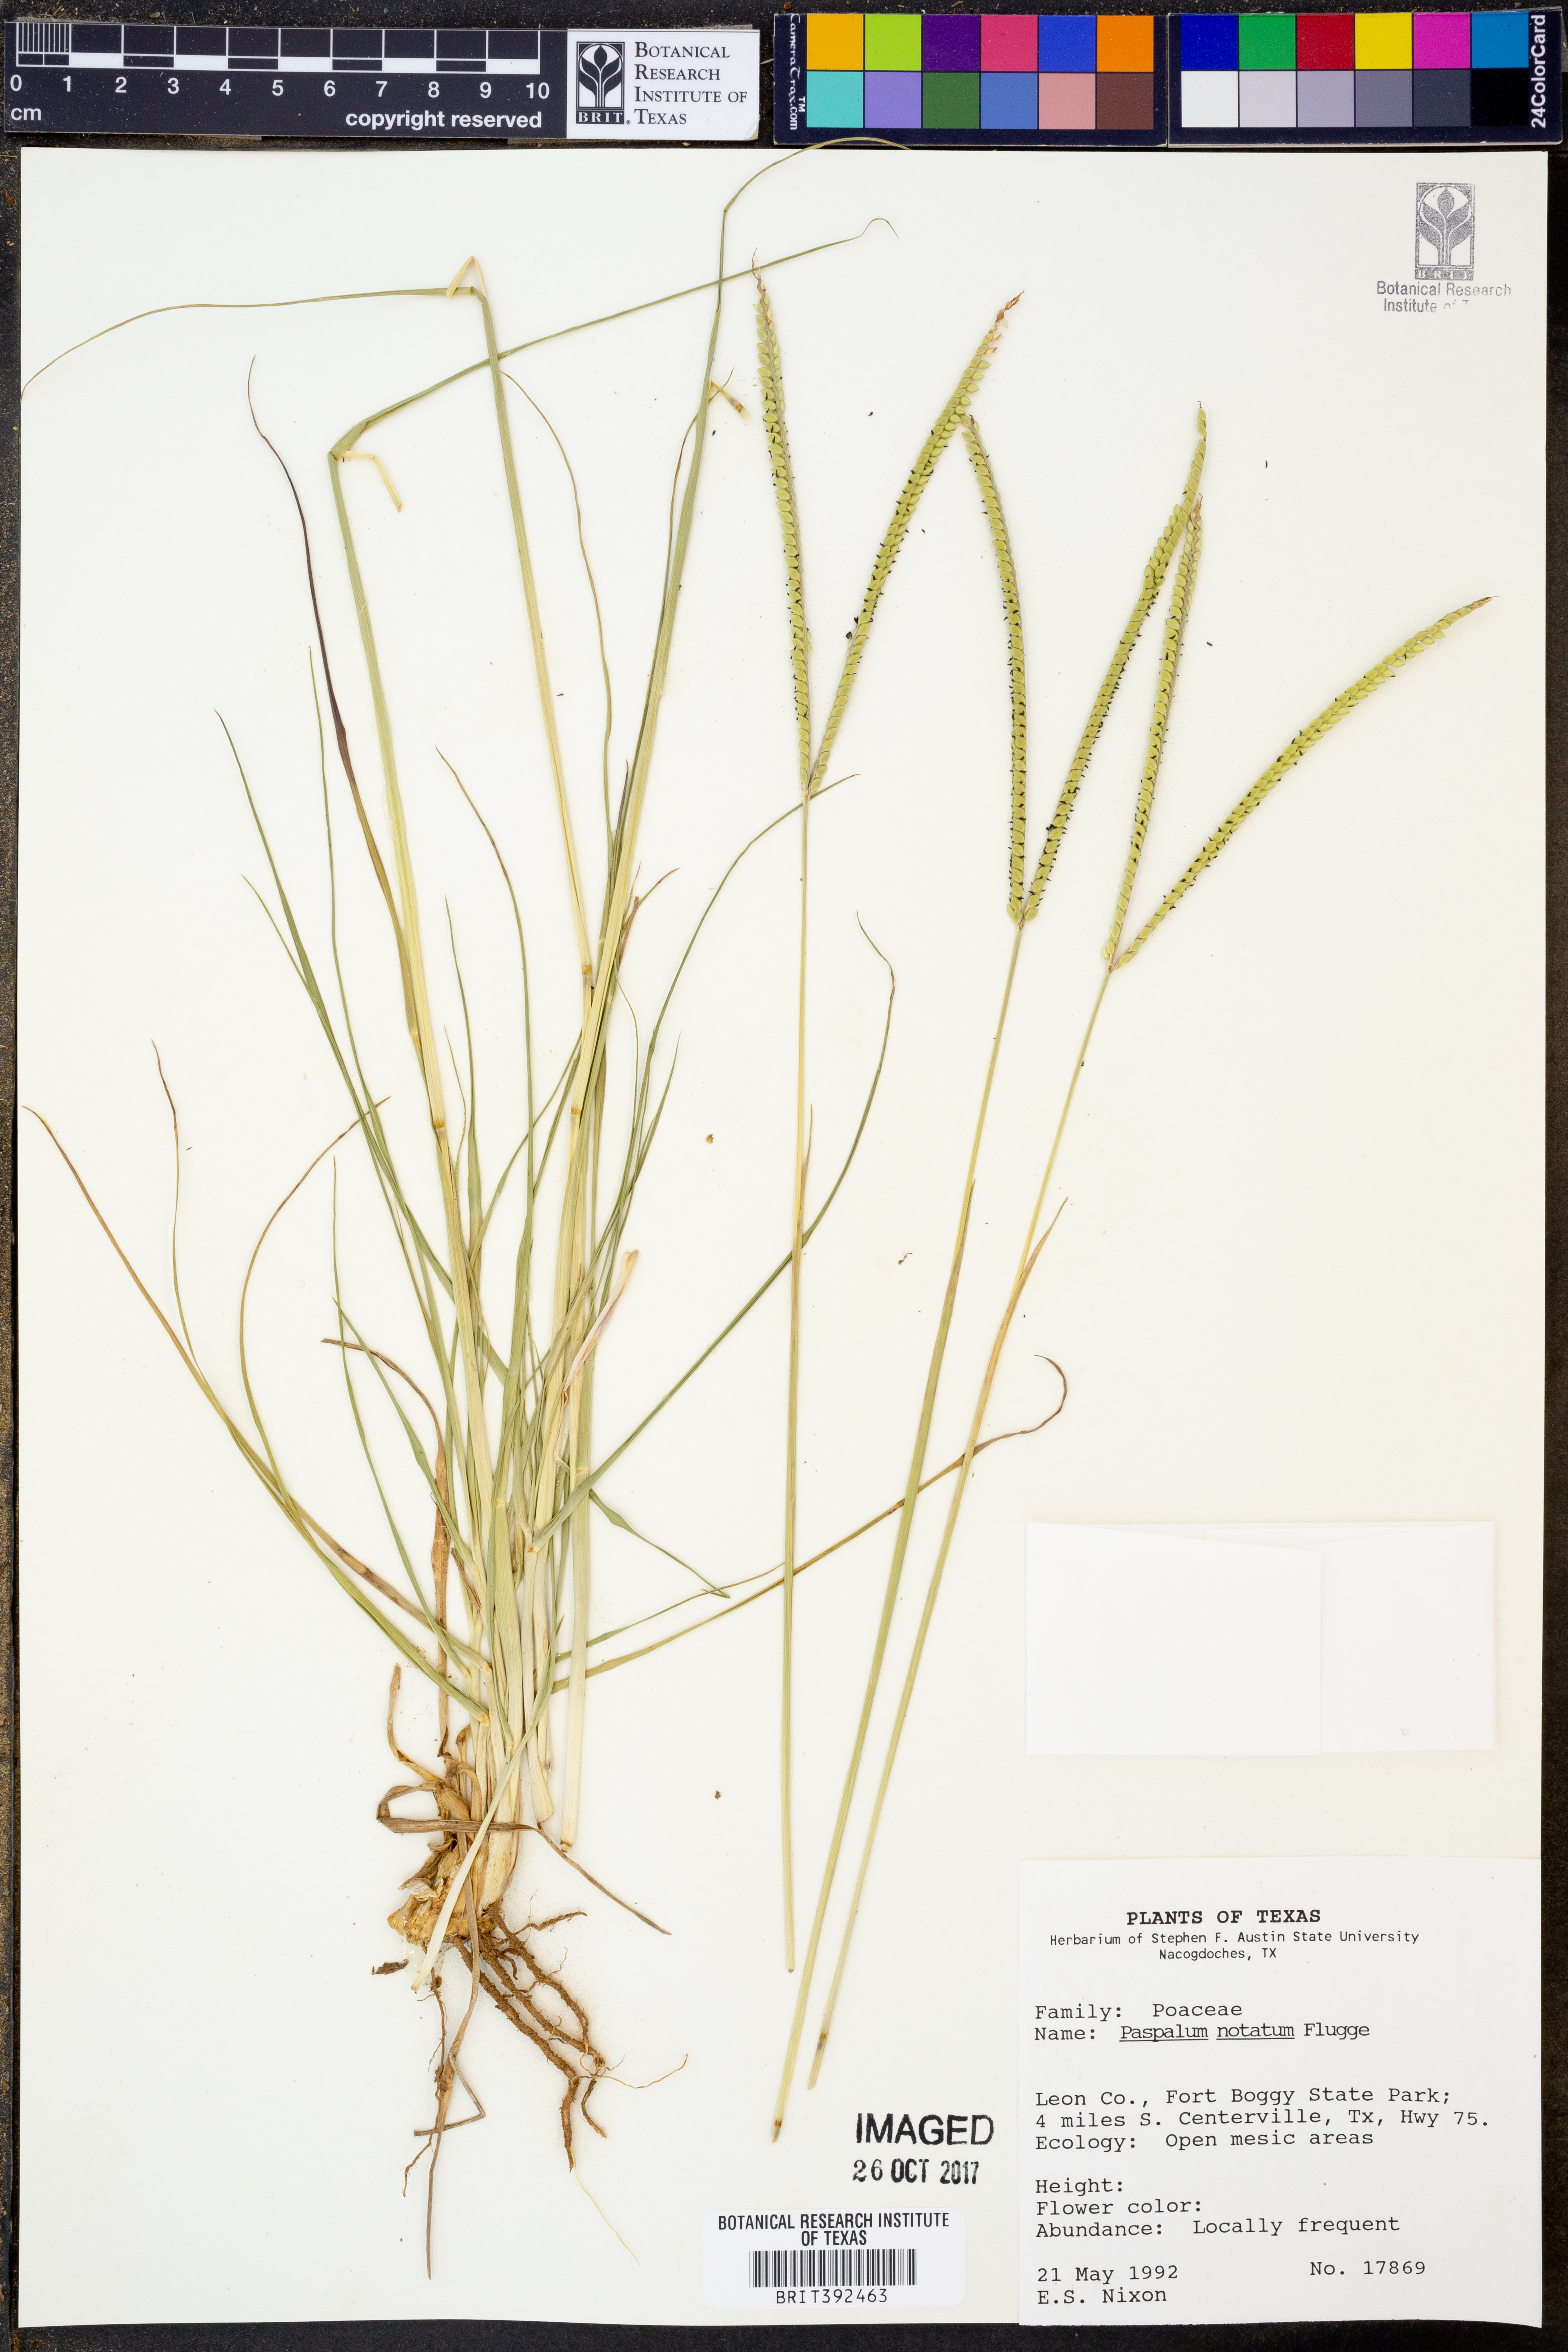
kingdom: Plantae
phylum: Tracheophyta
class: Liliopsida
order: Poales
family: Poaceae
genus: Paspalum
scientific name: Paspalum notatum
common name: Bahiagrass
